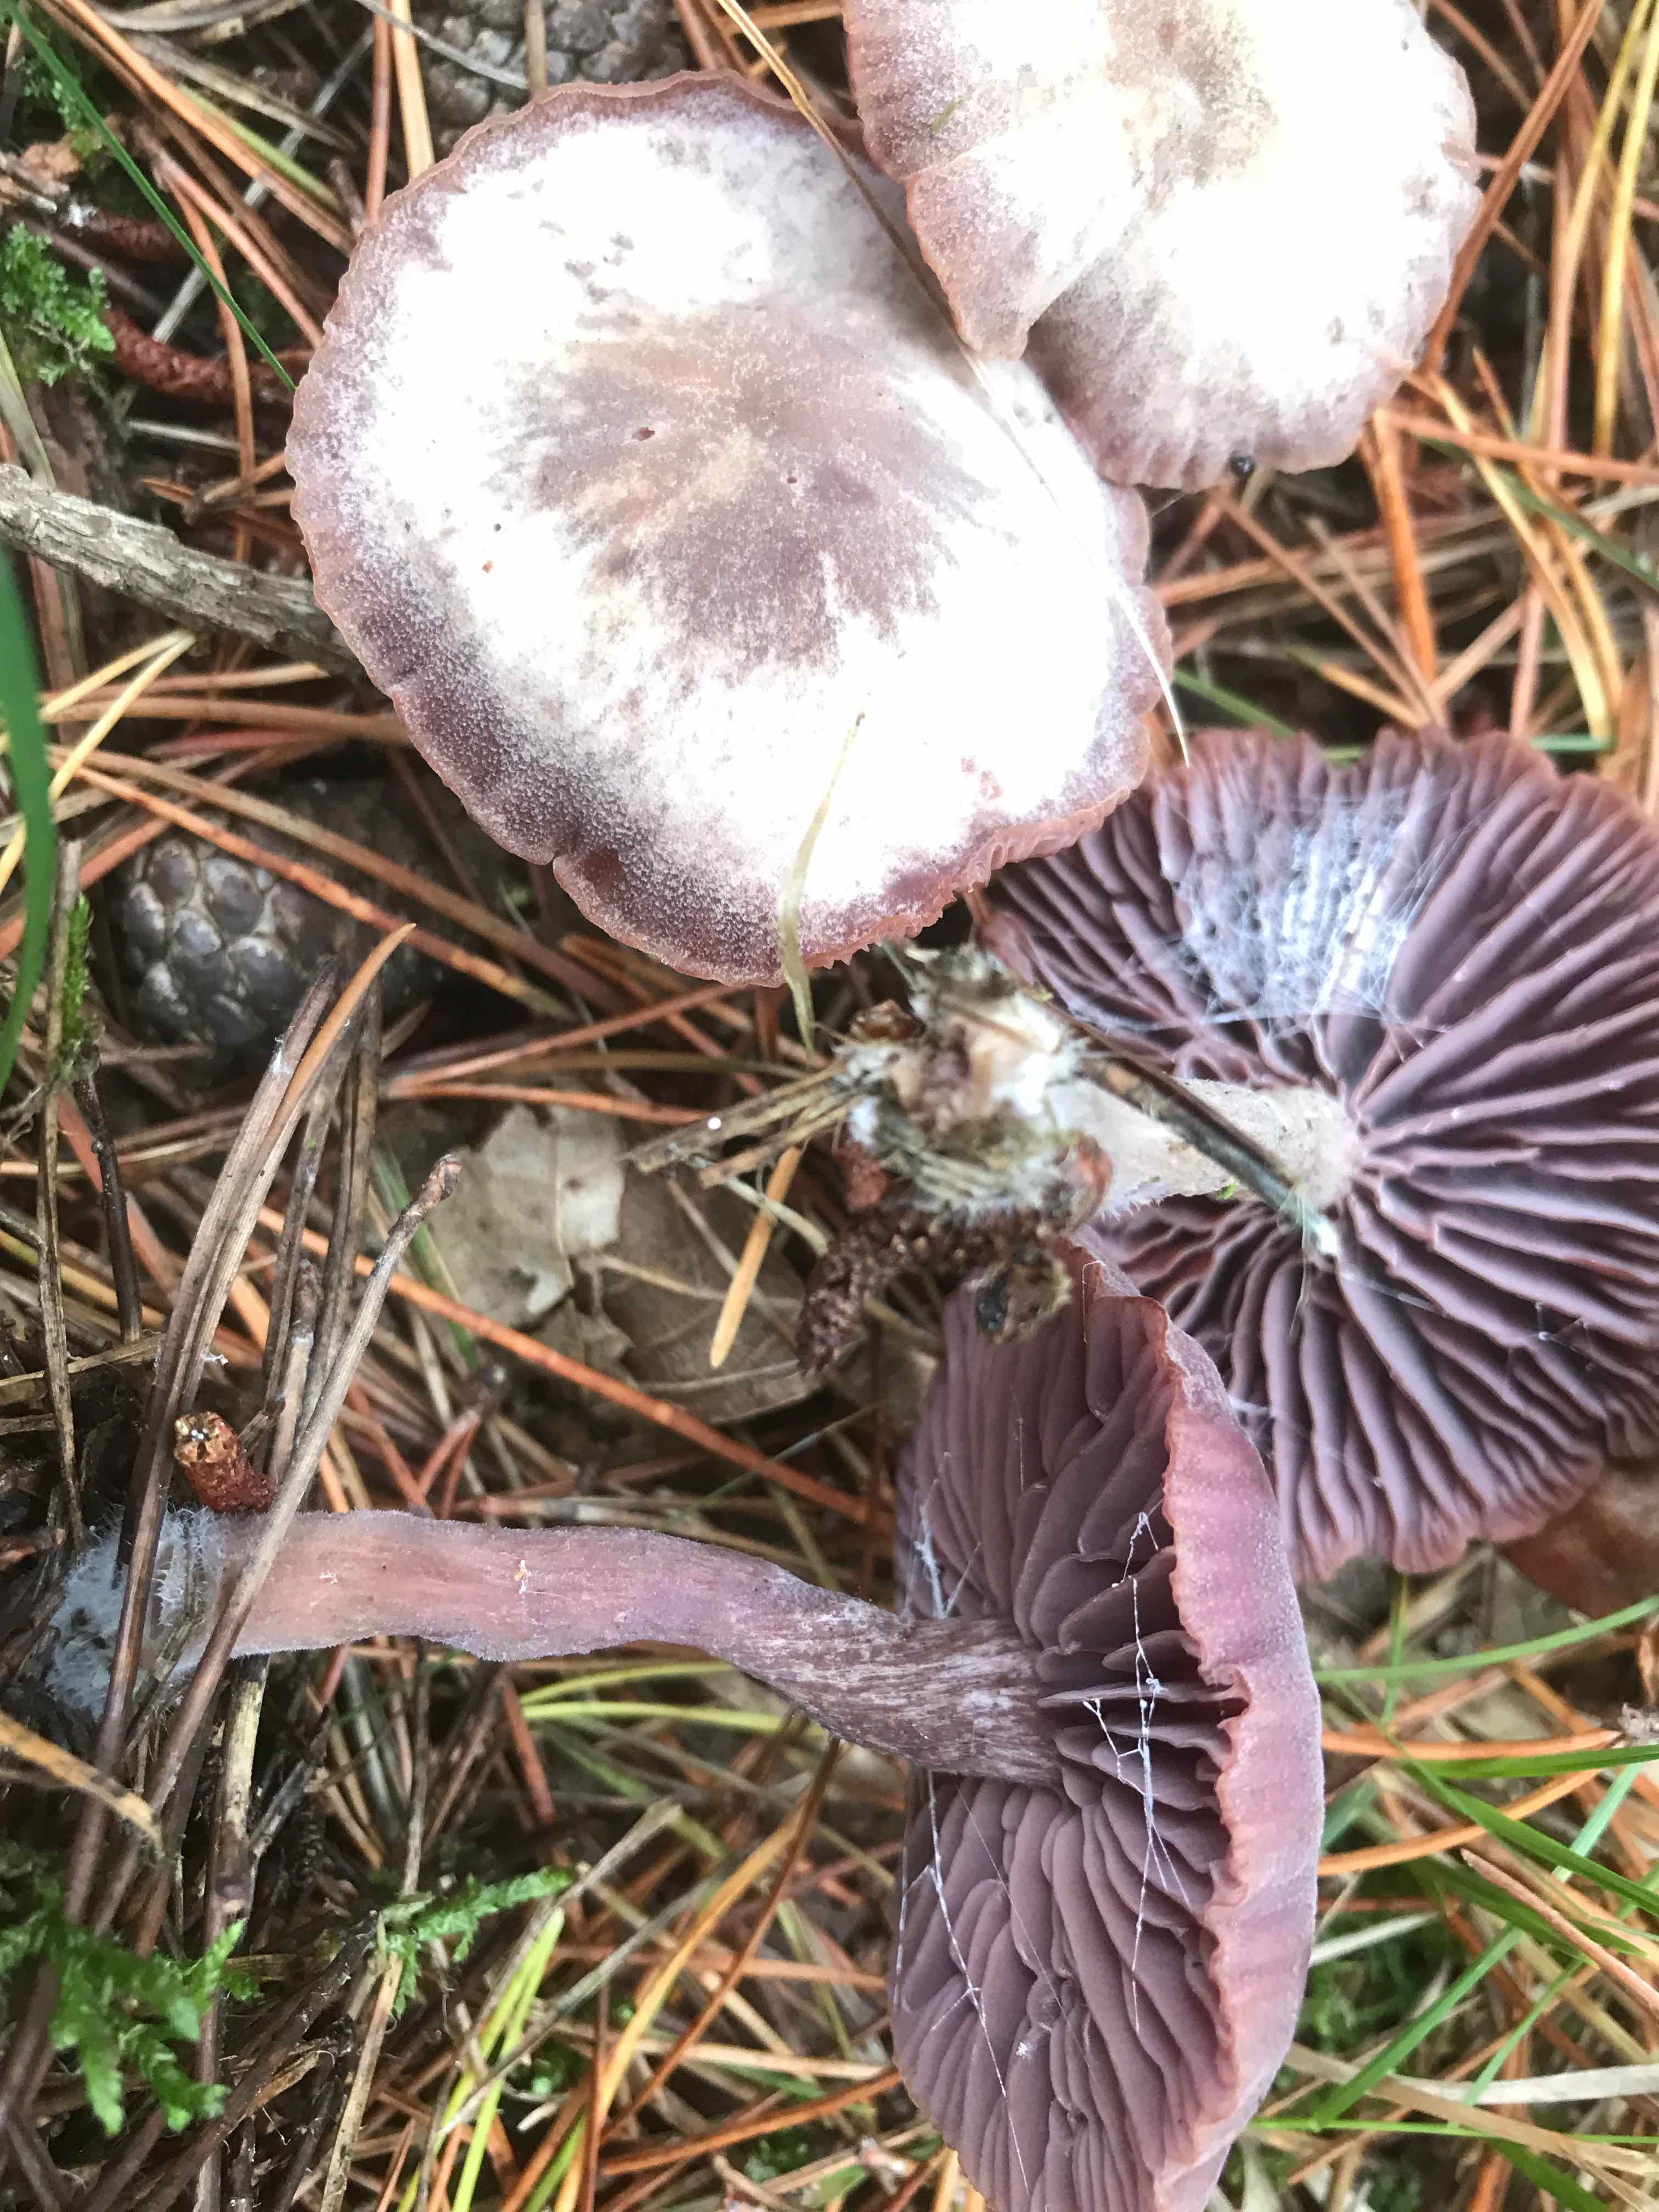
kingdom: Fungi
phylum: Basidiomycota
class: Agaricomycetes
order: Agaricales
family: Hydnangiaceae
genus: Laccaria
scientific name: Laccaria amethystina
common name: violet ametysthat
